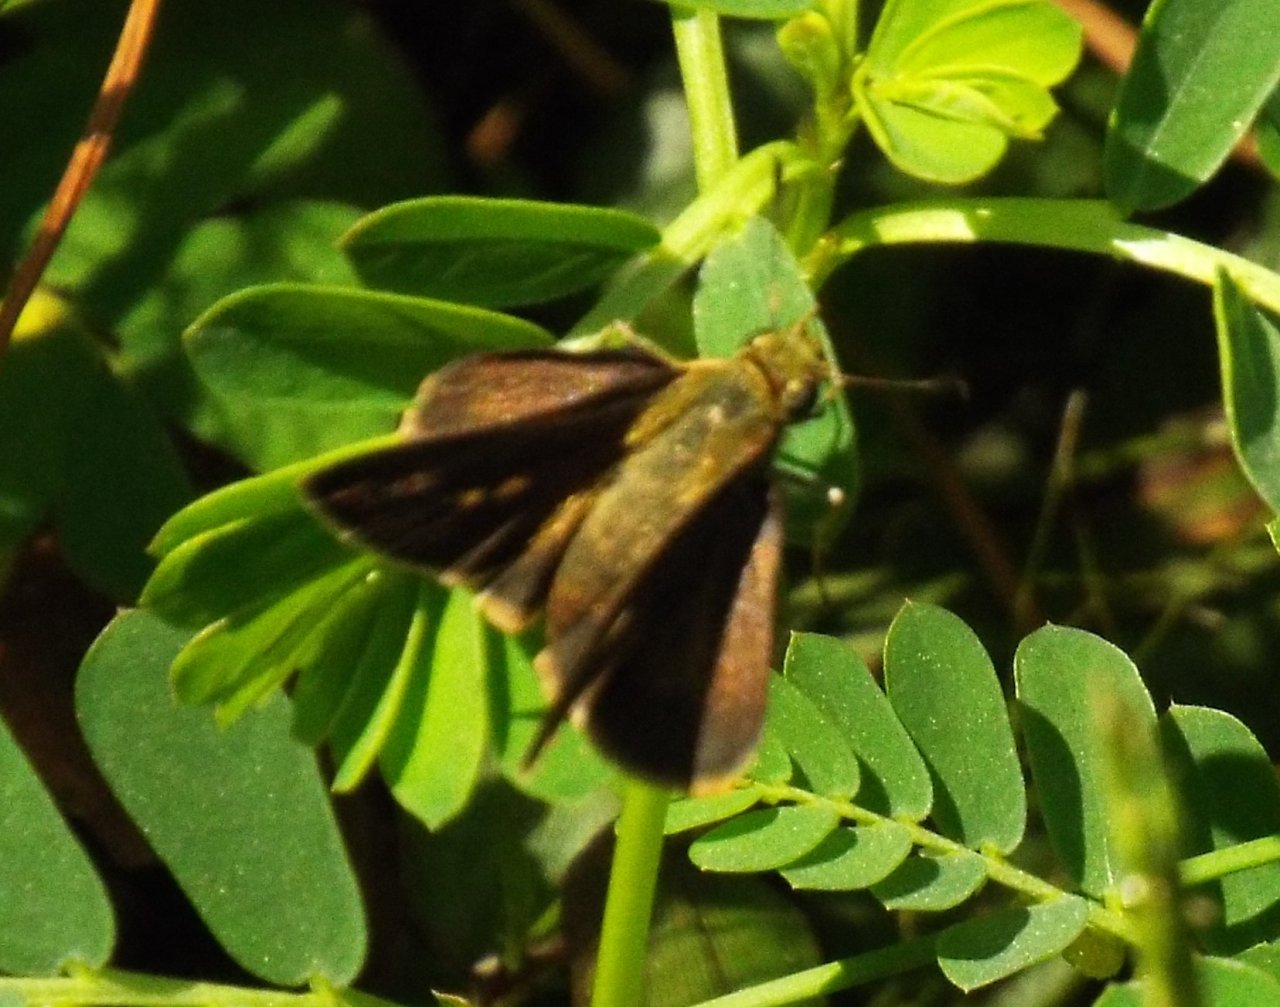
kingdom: Animalia
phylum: Arthropoda
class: Insecta
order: Lepidoptera
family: Hesperiidae
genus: Euphyes
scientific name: Euphyes vestris
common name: Dun Skipper
